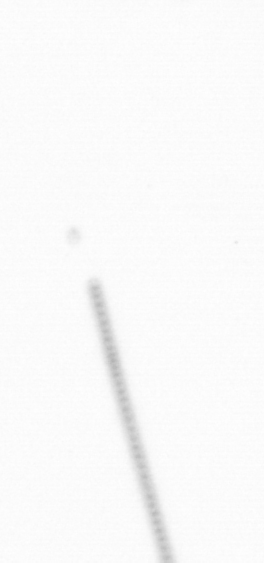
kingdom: Chromista
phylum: Ochrophyta
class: Bacillariophyceae
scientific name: Bacillariophyceae
